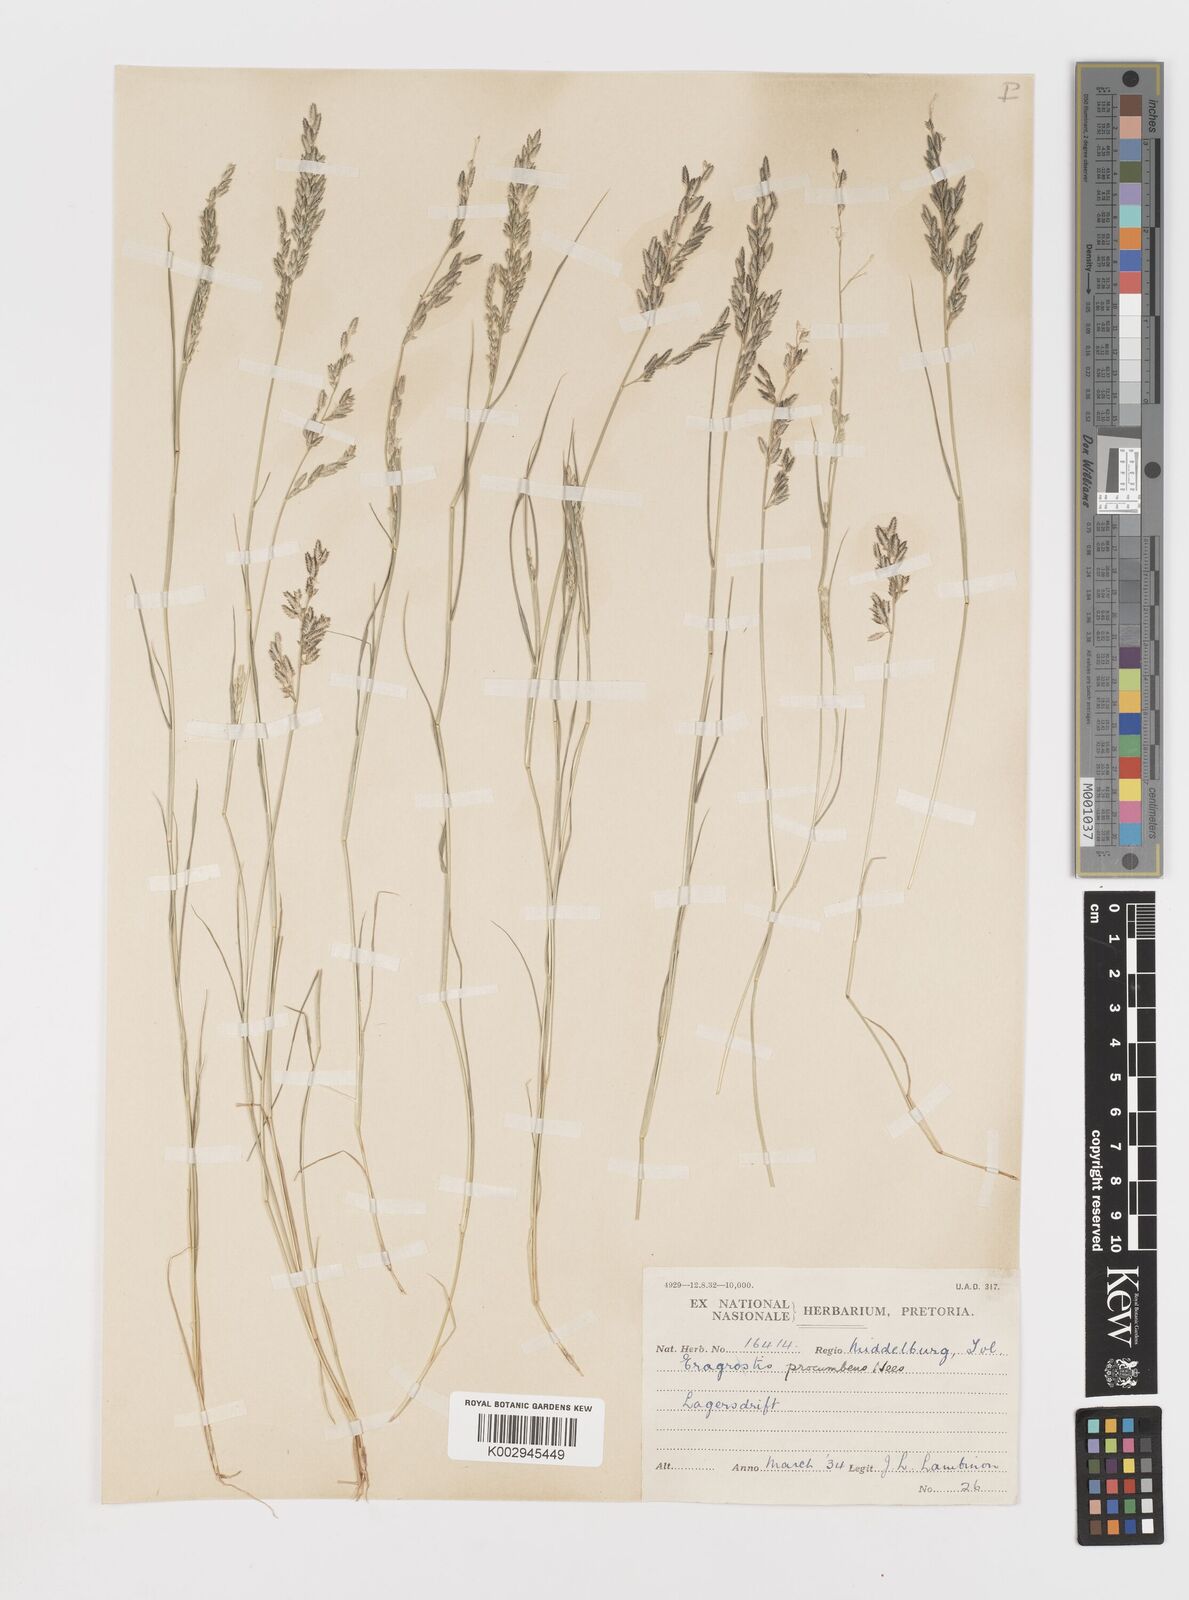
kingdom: Plantae
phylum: Tracheophyta
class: Liliopsida
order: Poales
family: Poaceae
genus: Eragrostis
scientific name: Eragrostis procumbens
